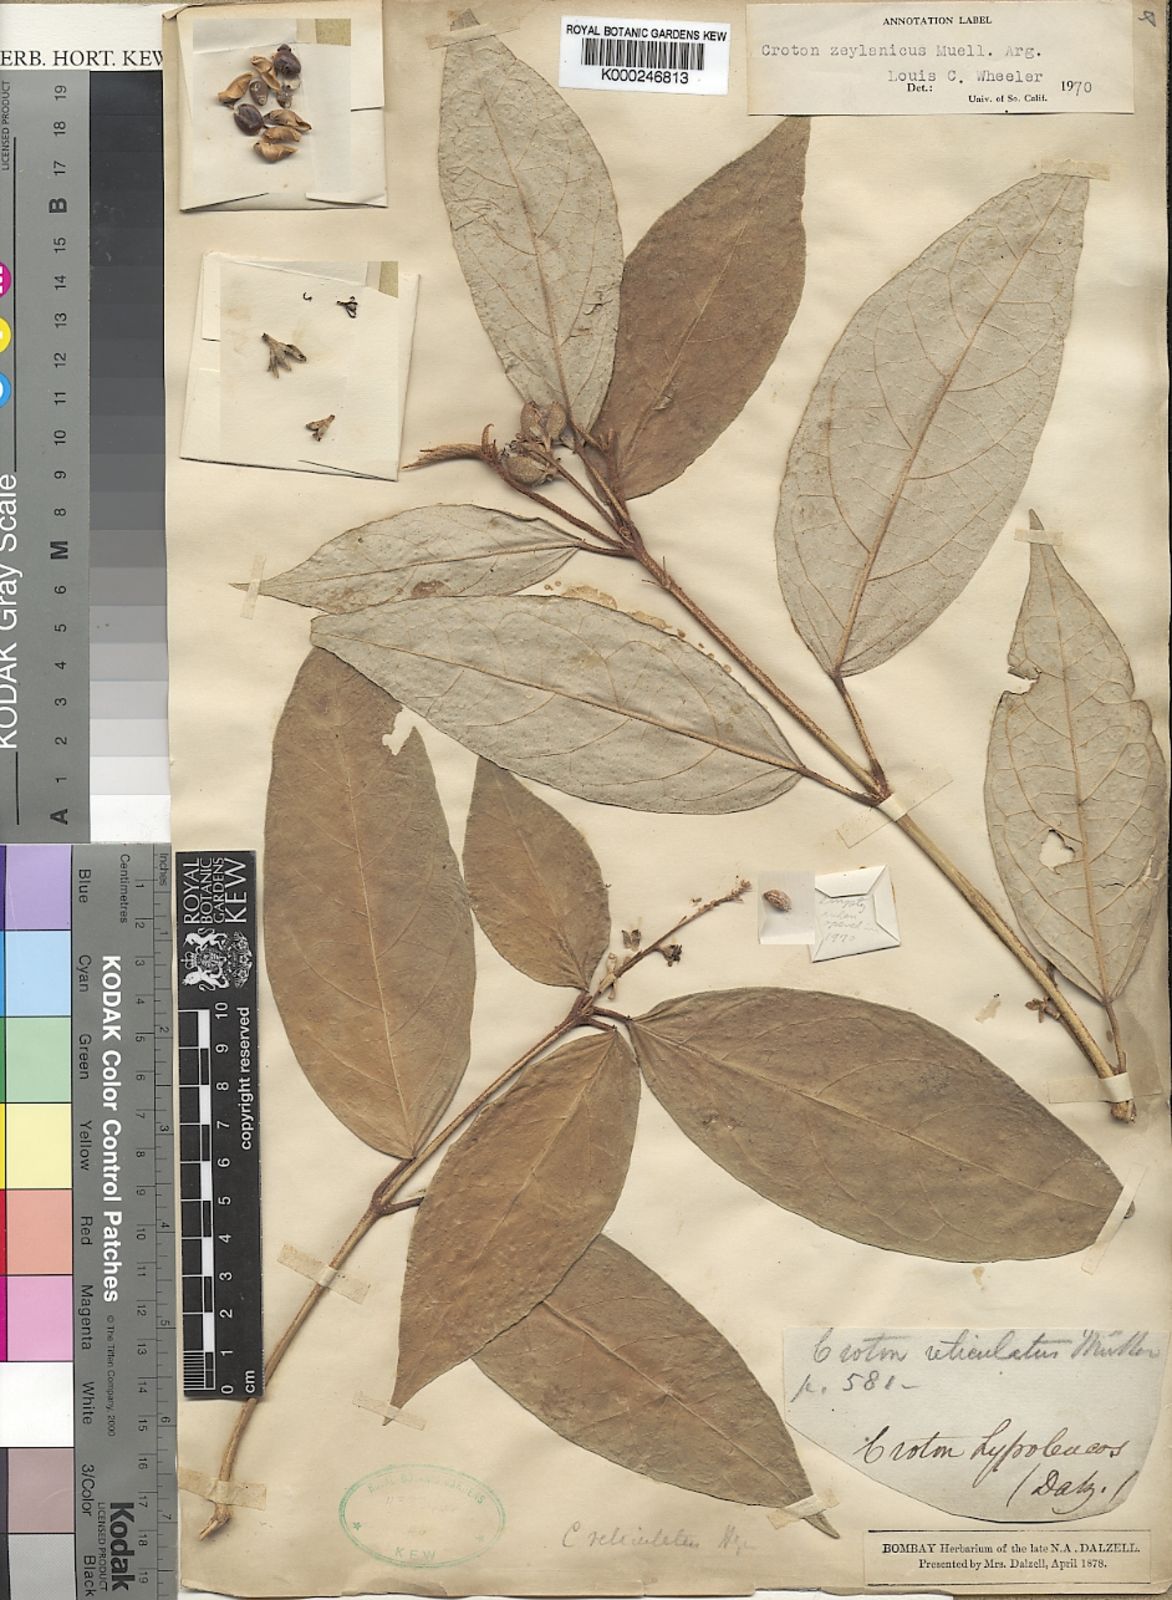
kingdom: Plantae
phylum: Tracheophyta
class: Magnoliopsida
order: Malpighiales
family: Euphorbiaceae
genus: Croton
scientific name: Croton
